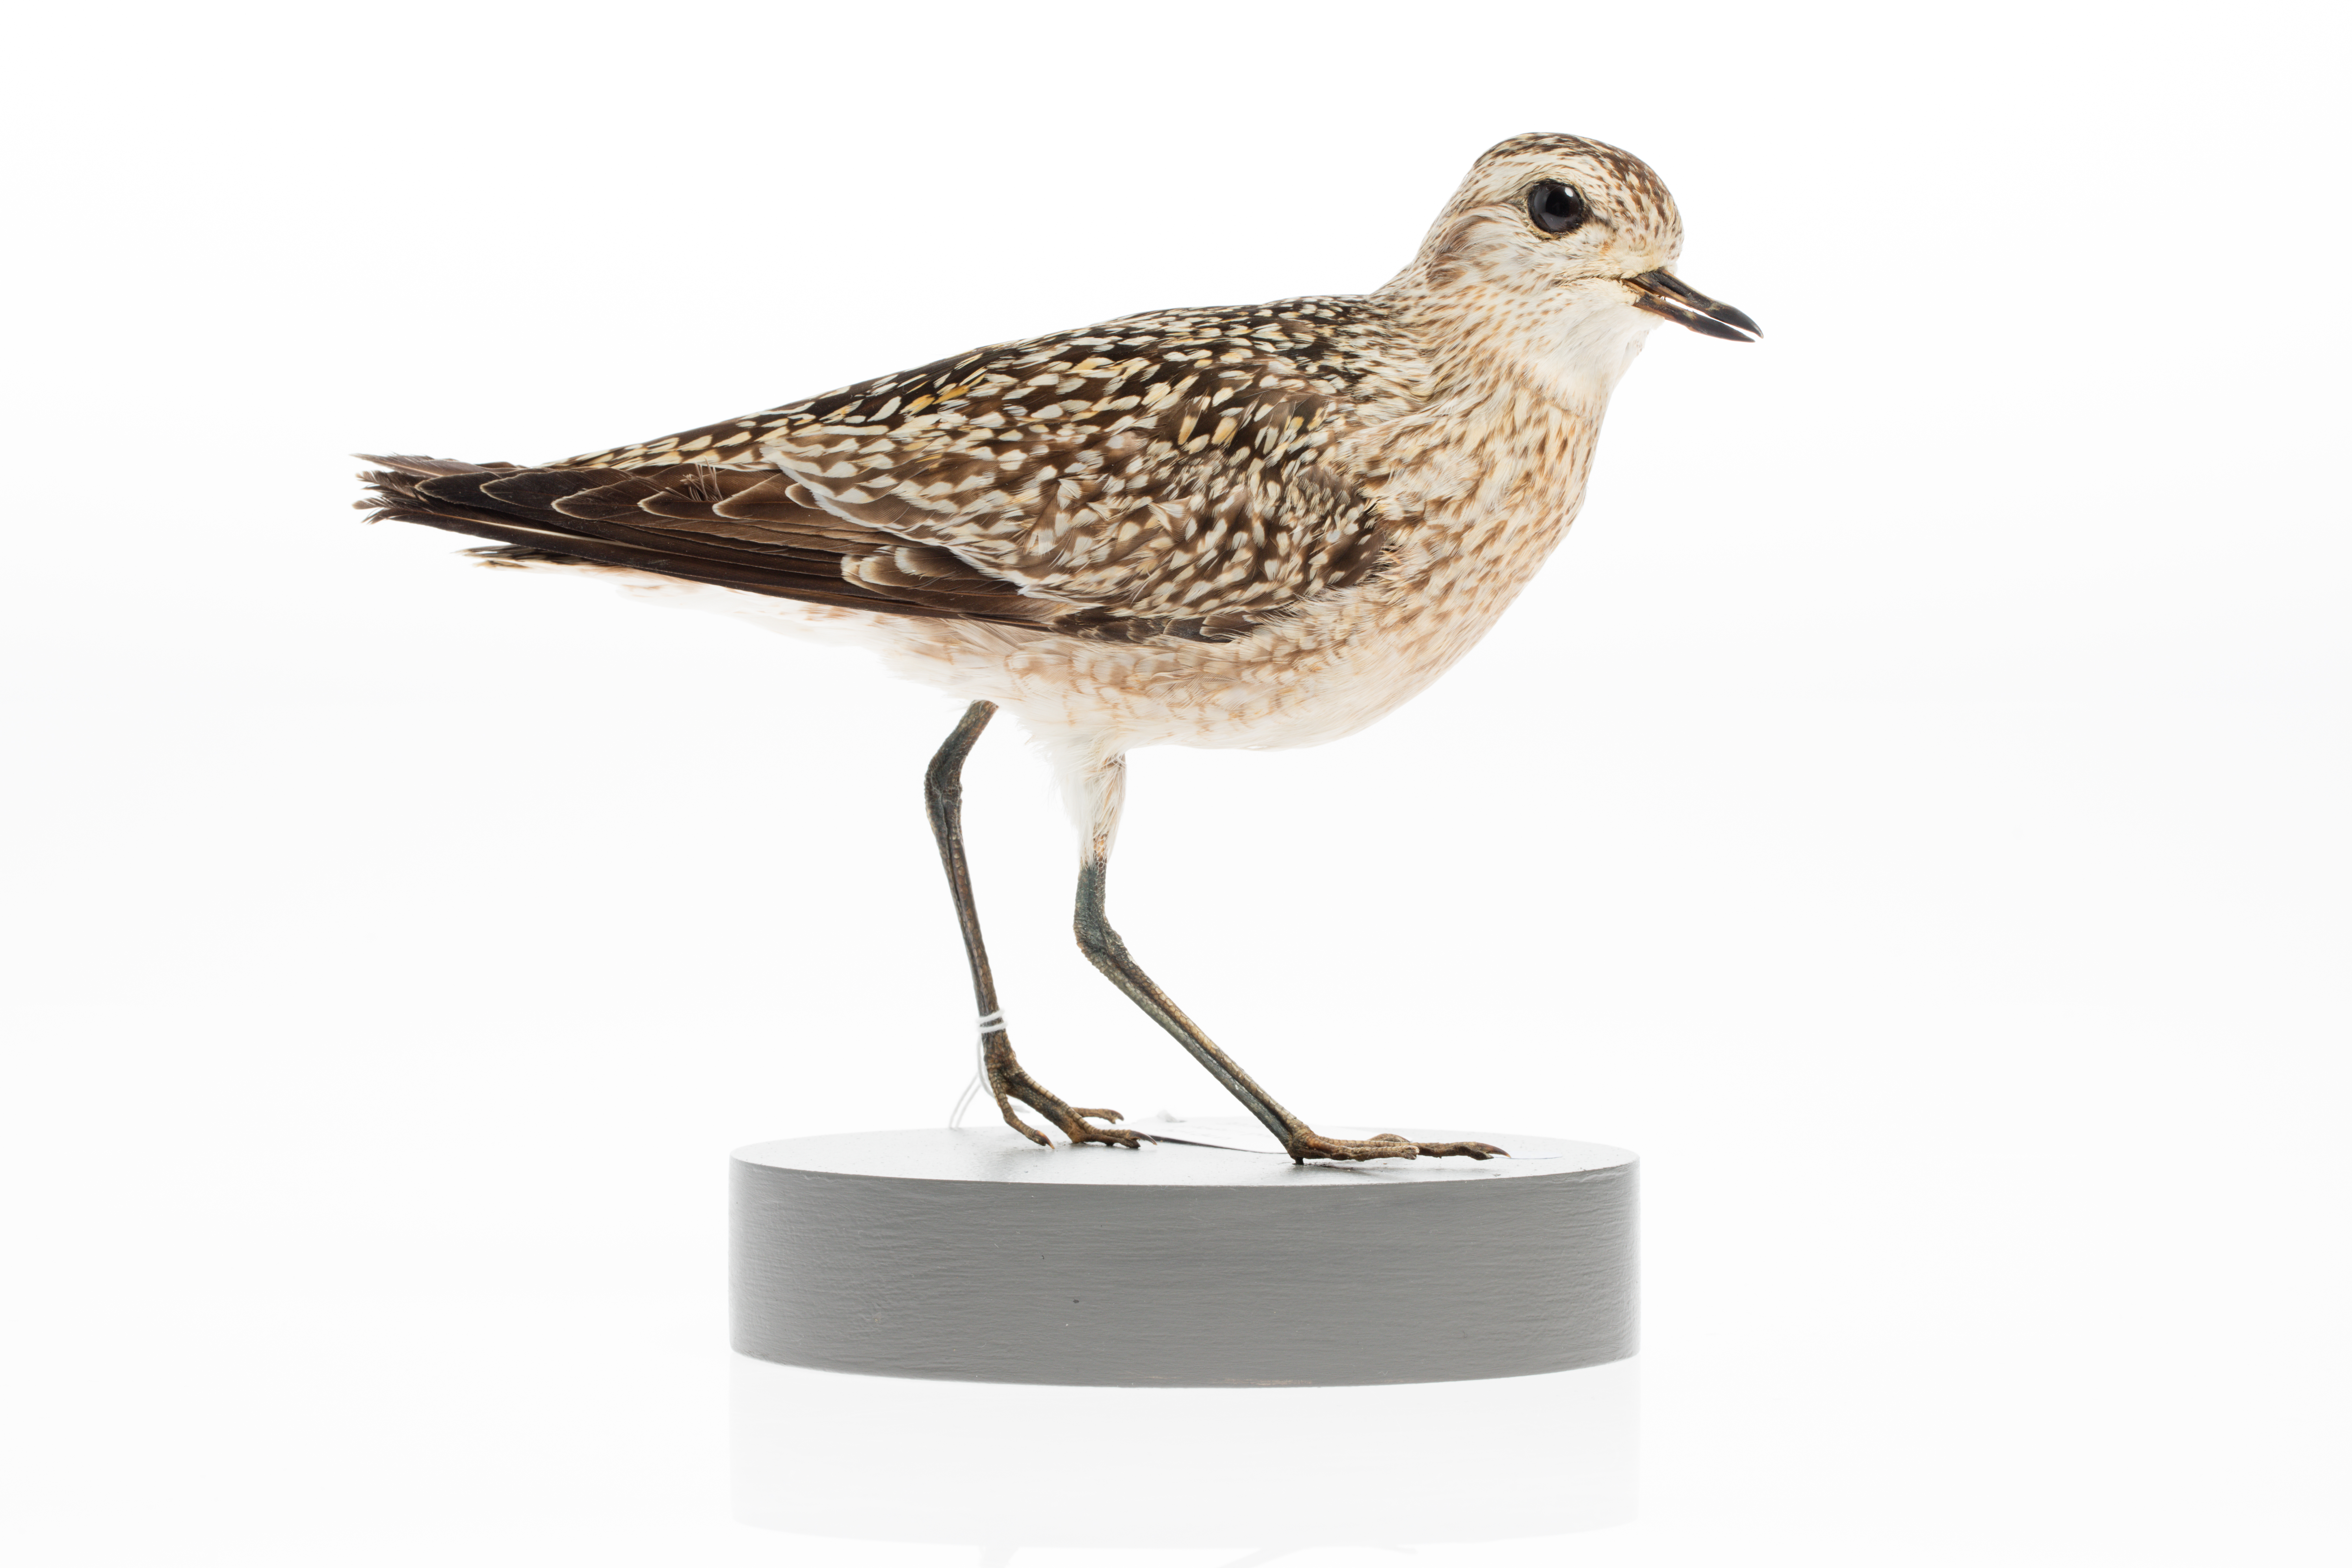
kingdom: Animalia
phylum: Chordata
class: Aves
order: Charadriiformes
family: Charadriidae
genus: Pluvialis
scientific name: Pluvialis fulva
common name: Pacific golden plover
